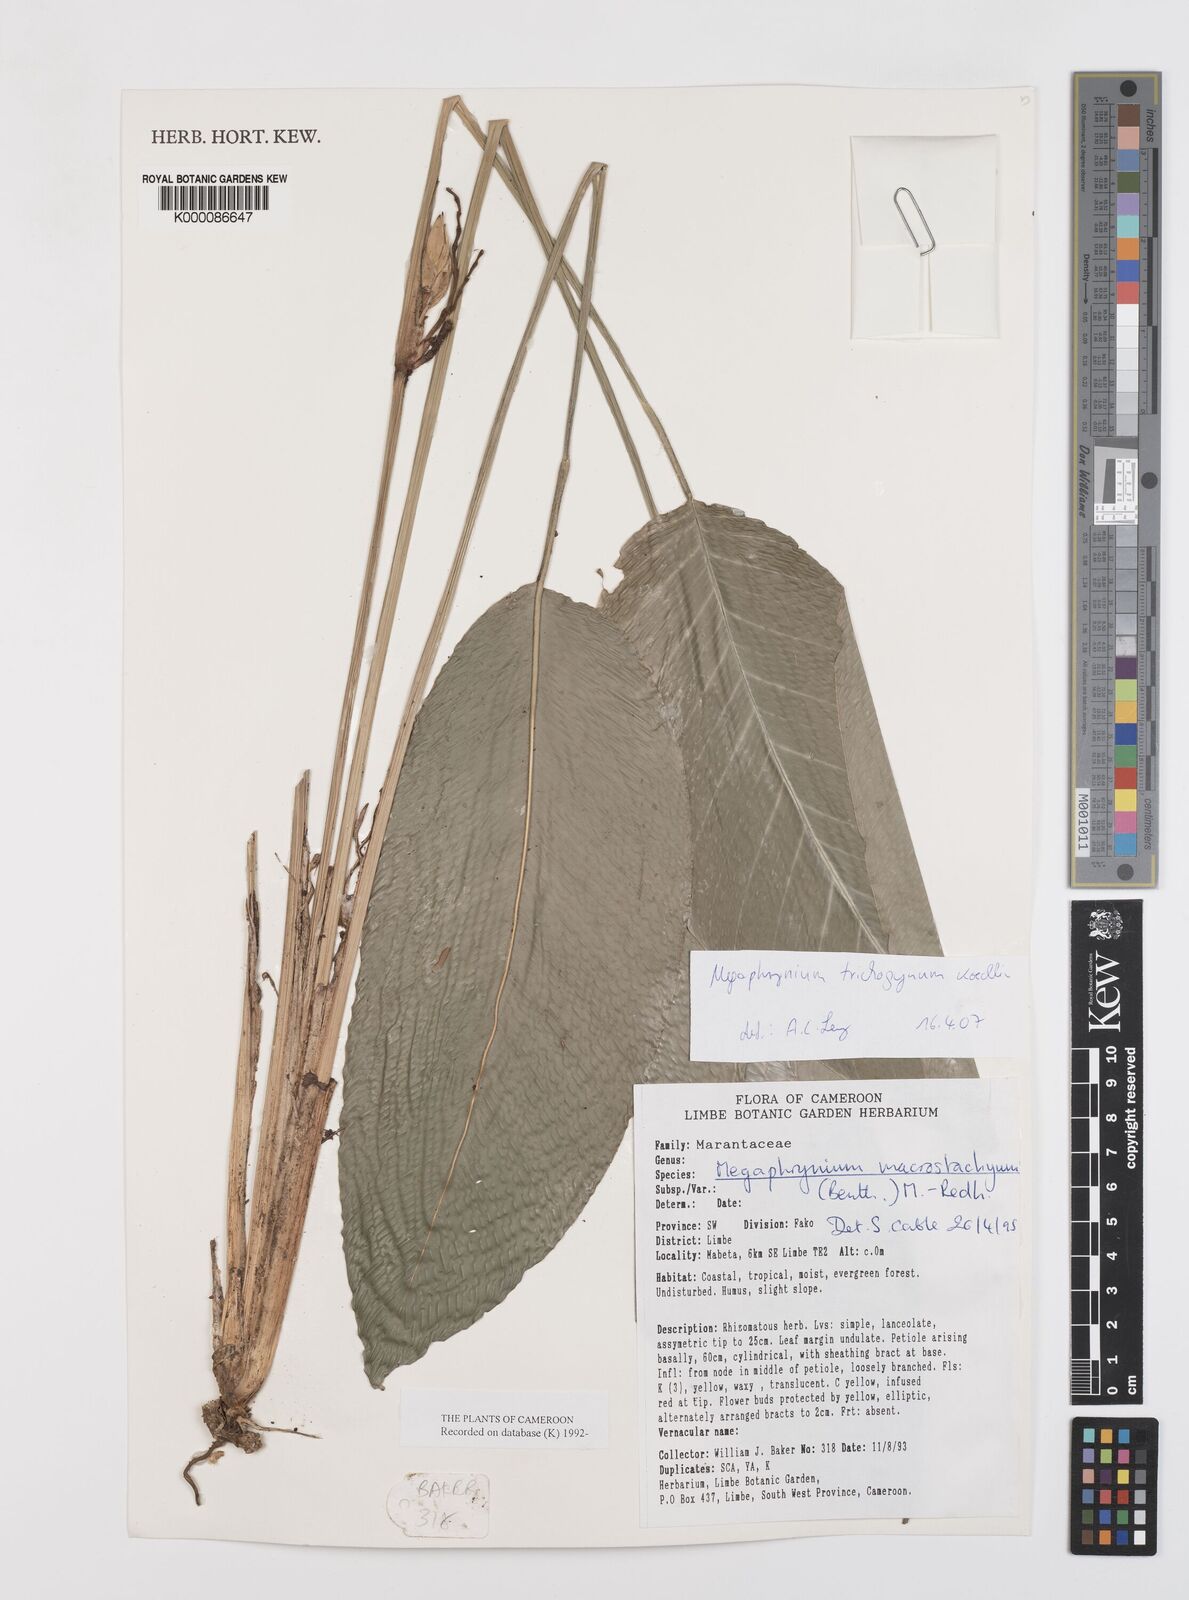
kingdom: Plantae
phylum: Tracheophyta
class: Liliopsida
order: Zingiberales
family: Marantaceae
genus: Megaphrynium
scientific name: Megaphrynium macrostachyum
